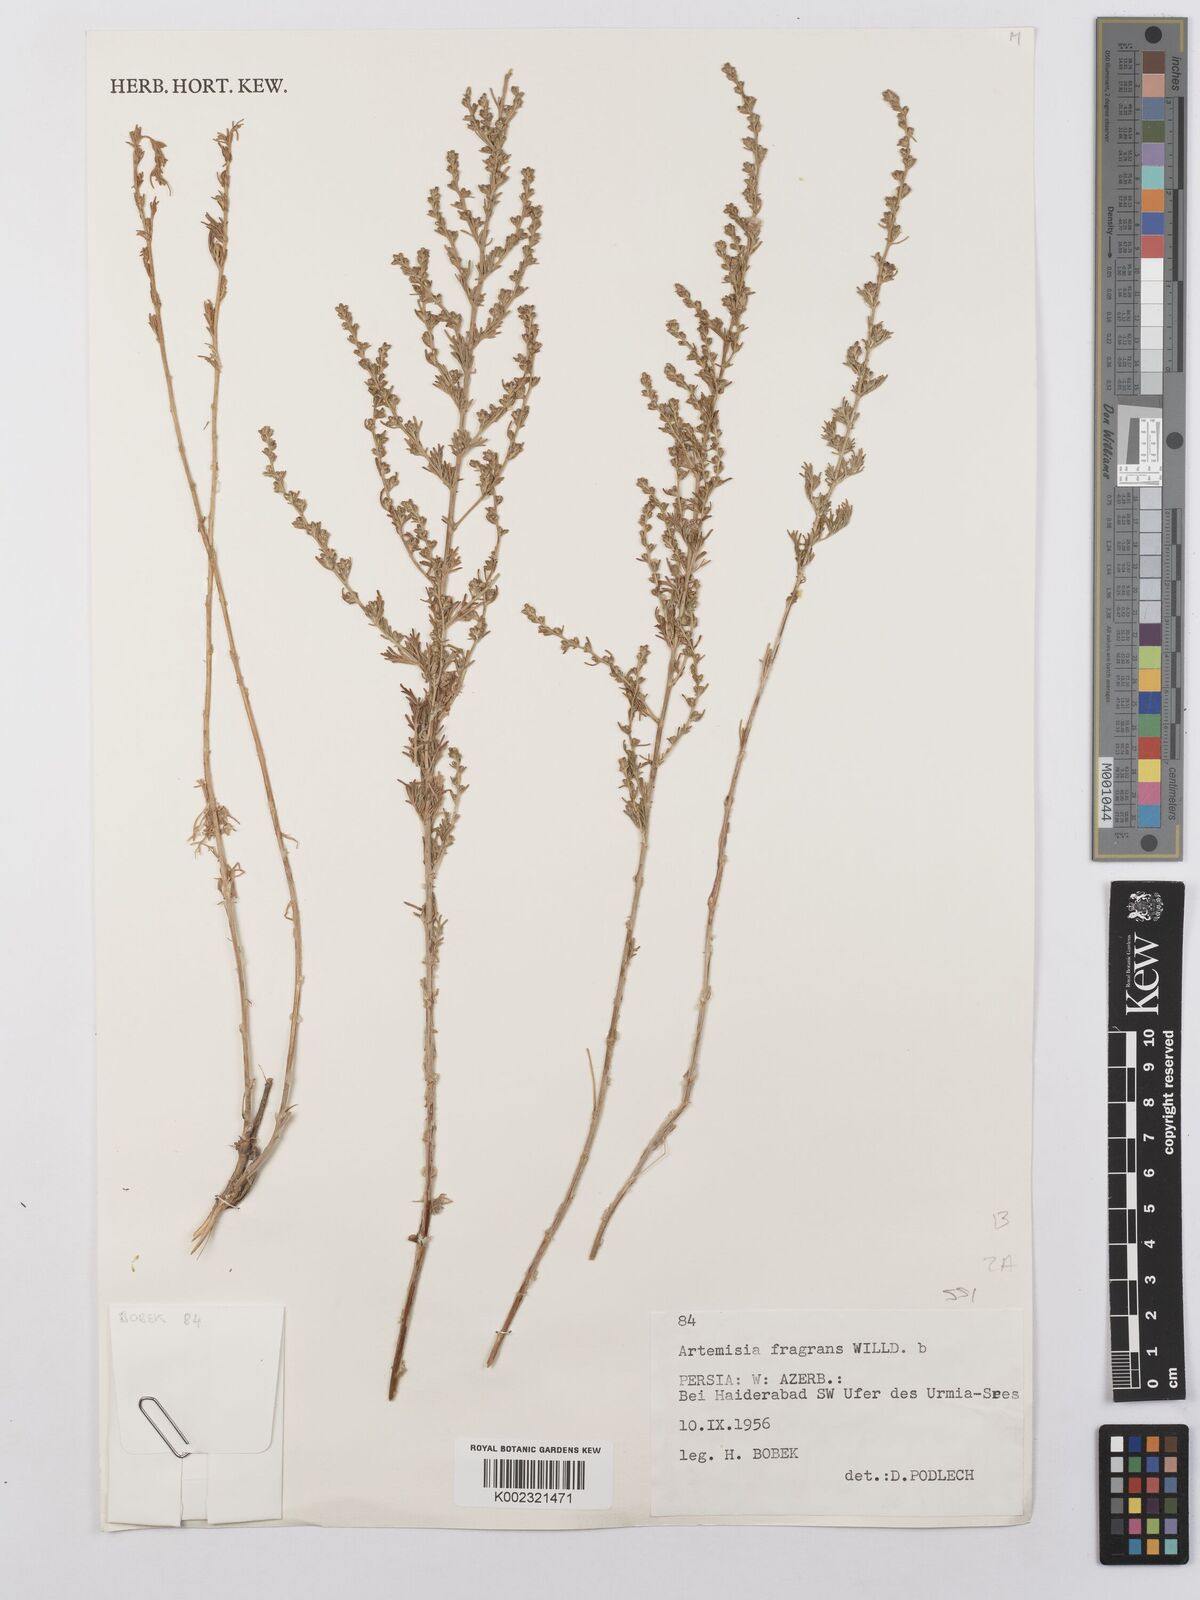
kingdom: Plantae
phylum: Tracheophyta
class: Magnoliopsida
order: Asterales
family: Asteraceae
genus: Artemisia
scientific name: Artemisia fragrans
